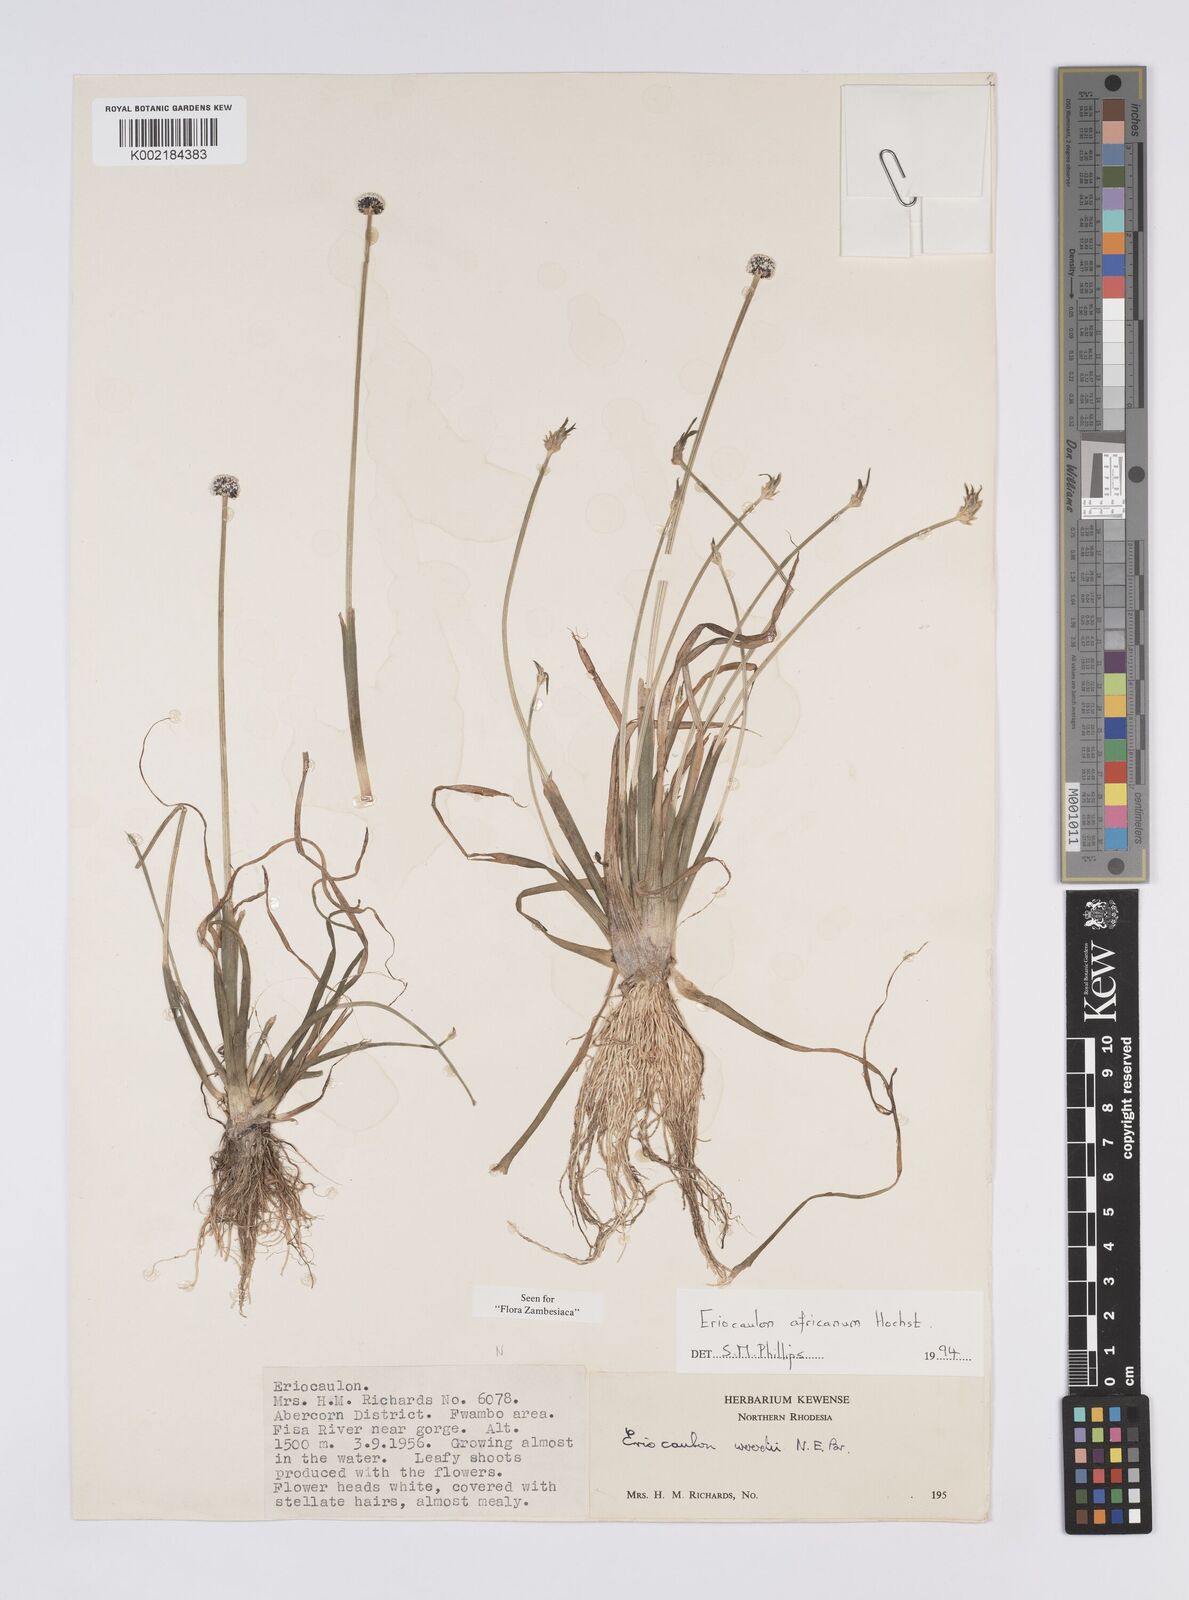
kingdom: Plantae
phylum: Tracheophyta
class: Liliopsida
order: Poales
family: Eriocaulaceae
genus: Eriocaulon
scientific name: Eriocaulon africanum
